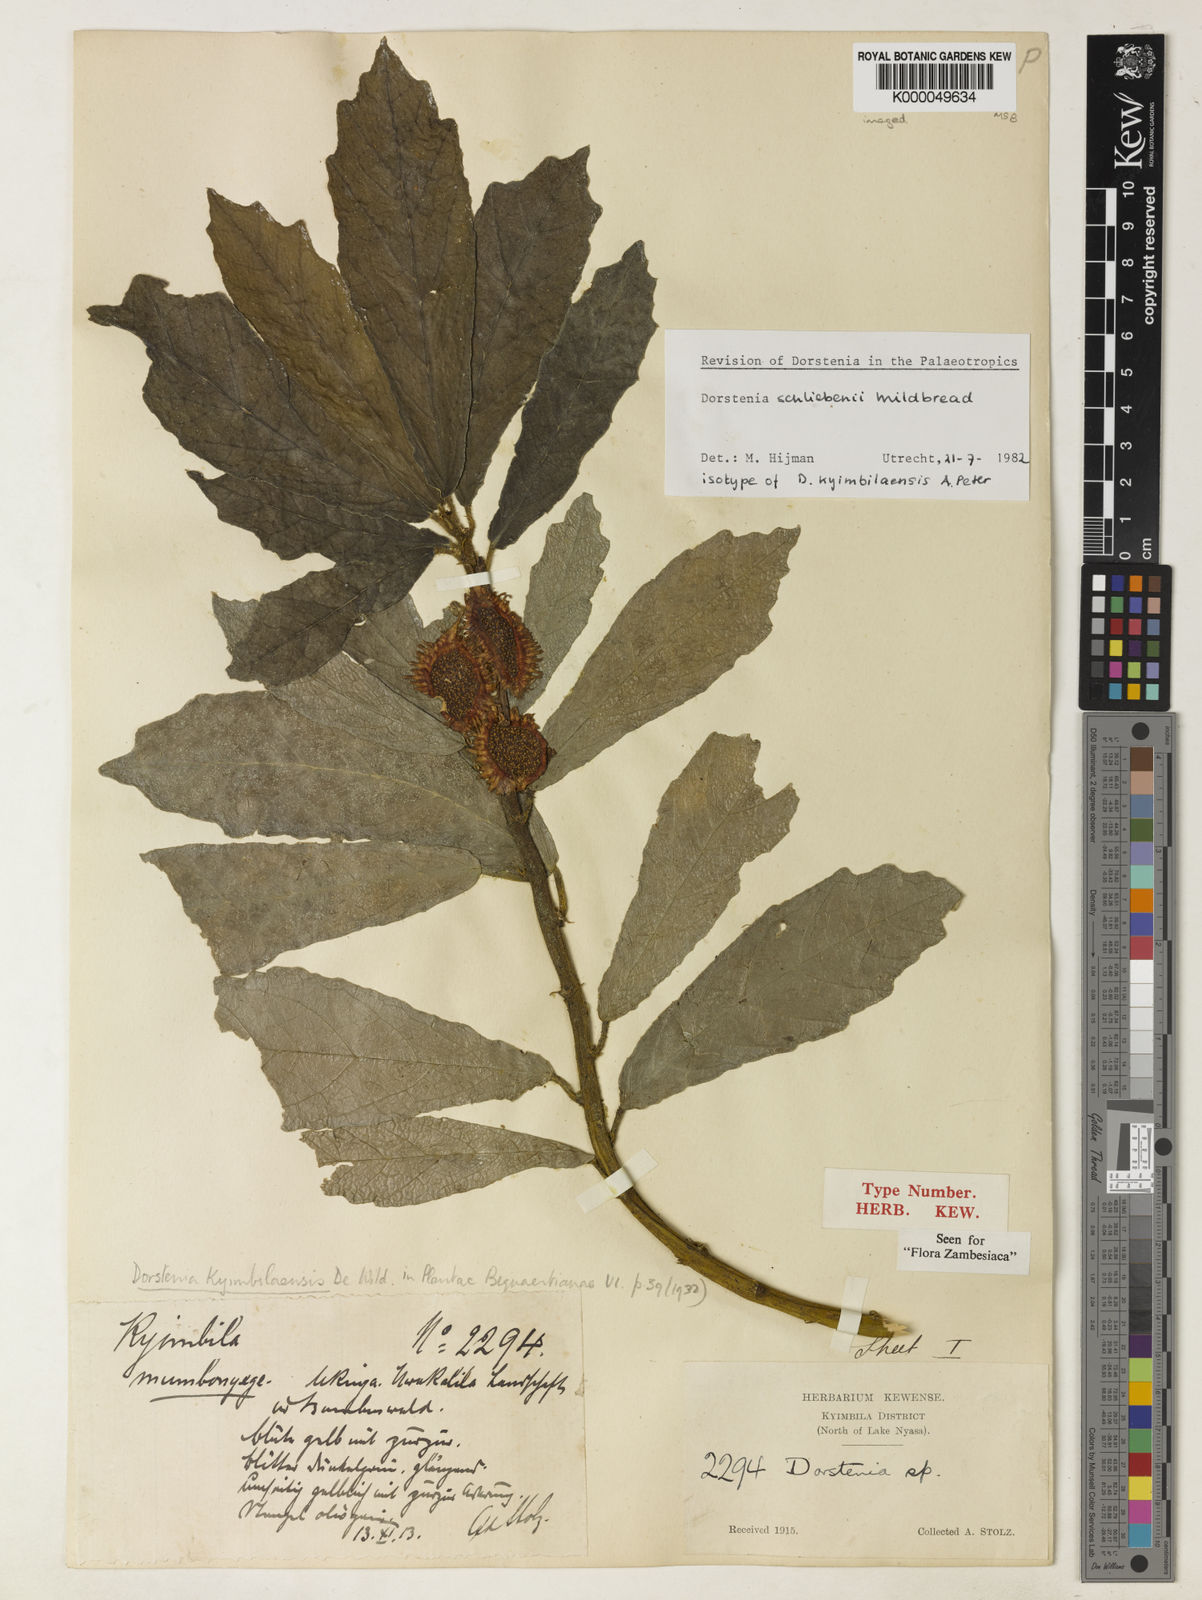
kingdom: Plantae
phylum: Tracheophyta
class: Magnoliopsida
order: Rosales
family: Moraceae
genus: Dorstenia
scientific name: Dorstenia schliebenii
